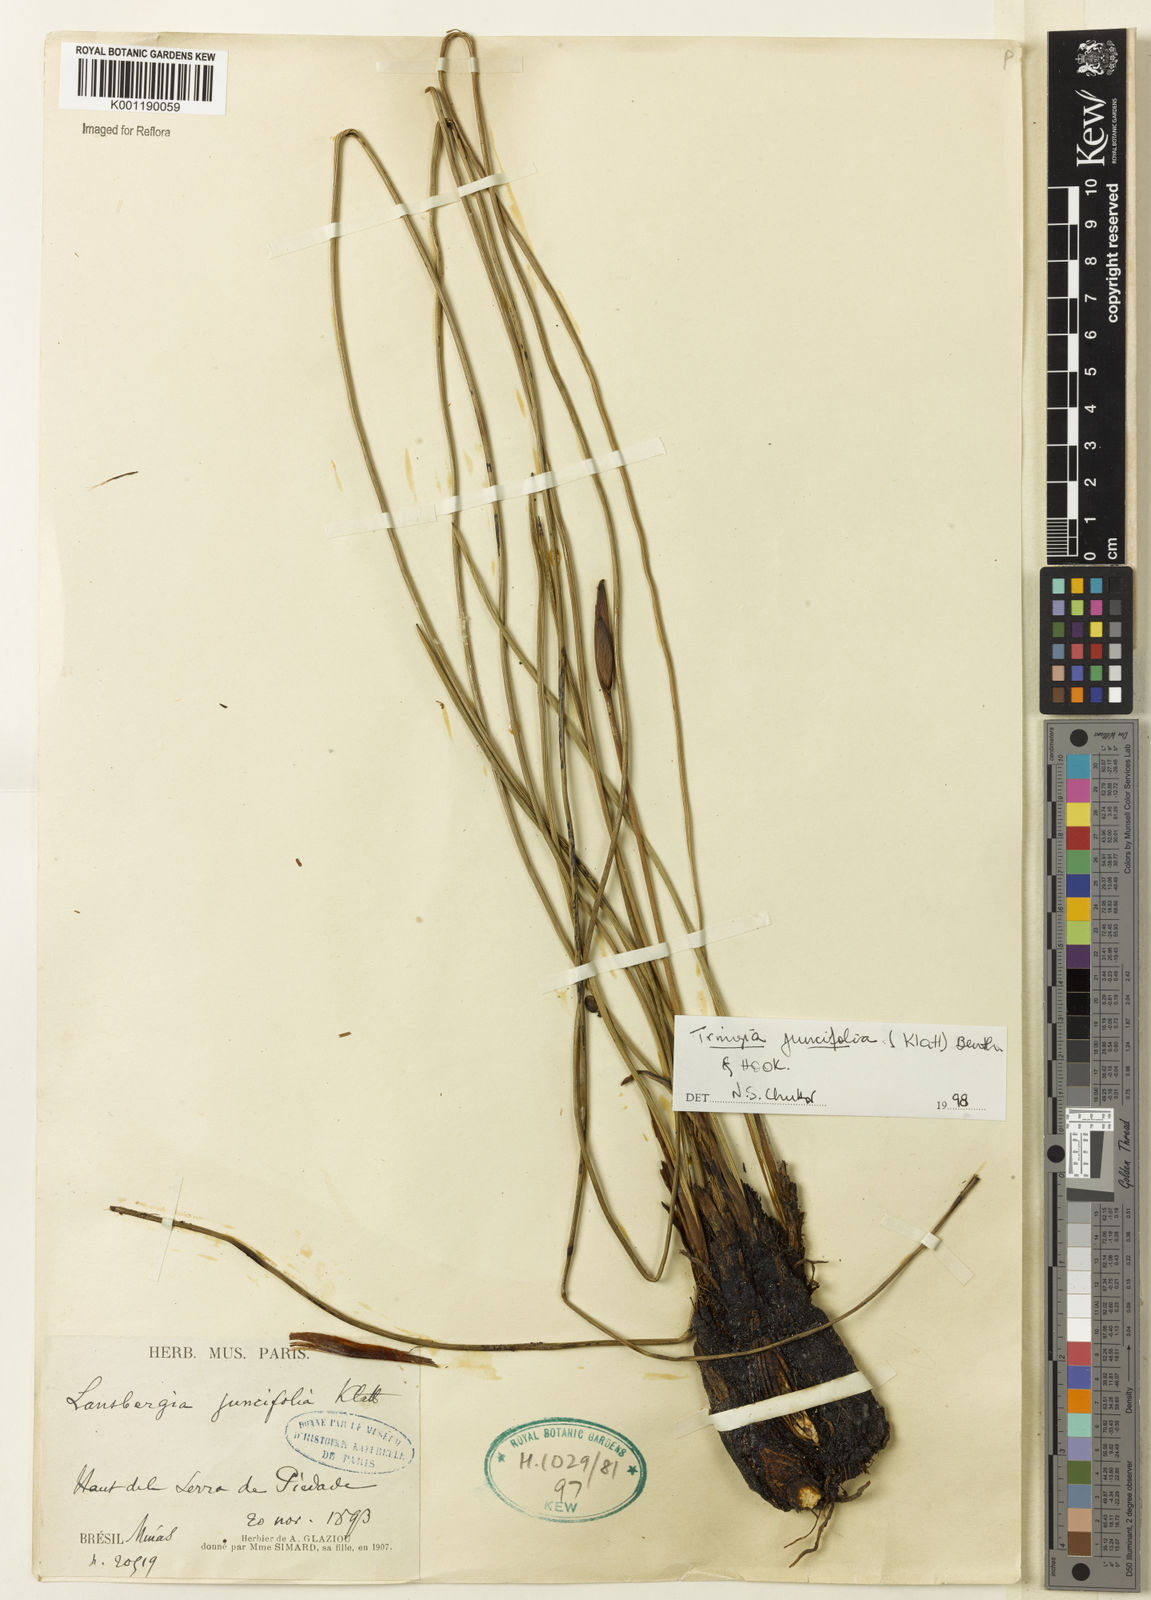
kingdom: Plantae
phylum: Tracheophyta
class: Liliopsida
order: Asparagales
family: Iridaceae
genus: Trimezia
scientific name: Trimezia juncifolia
